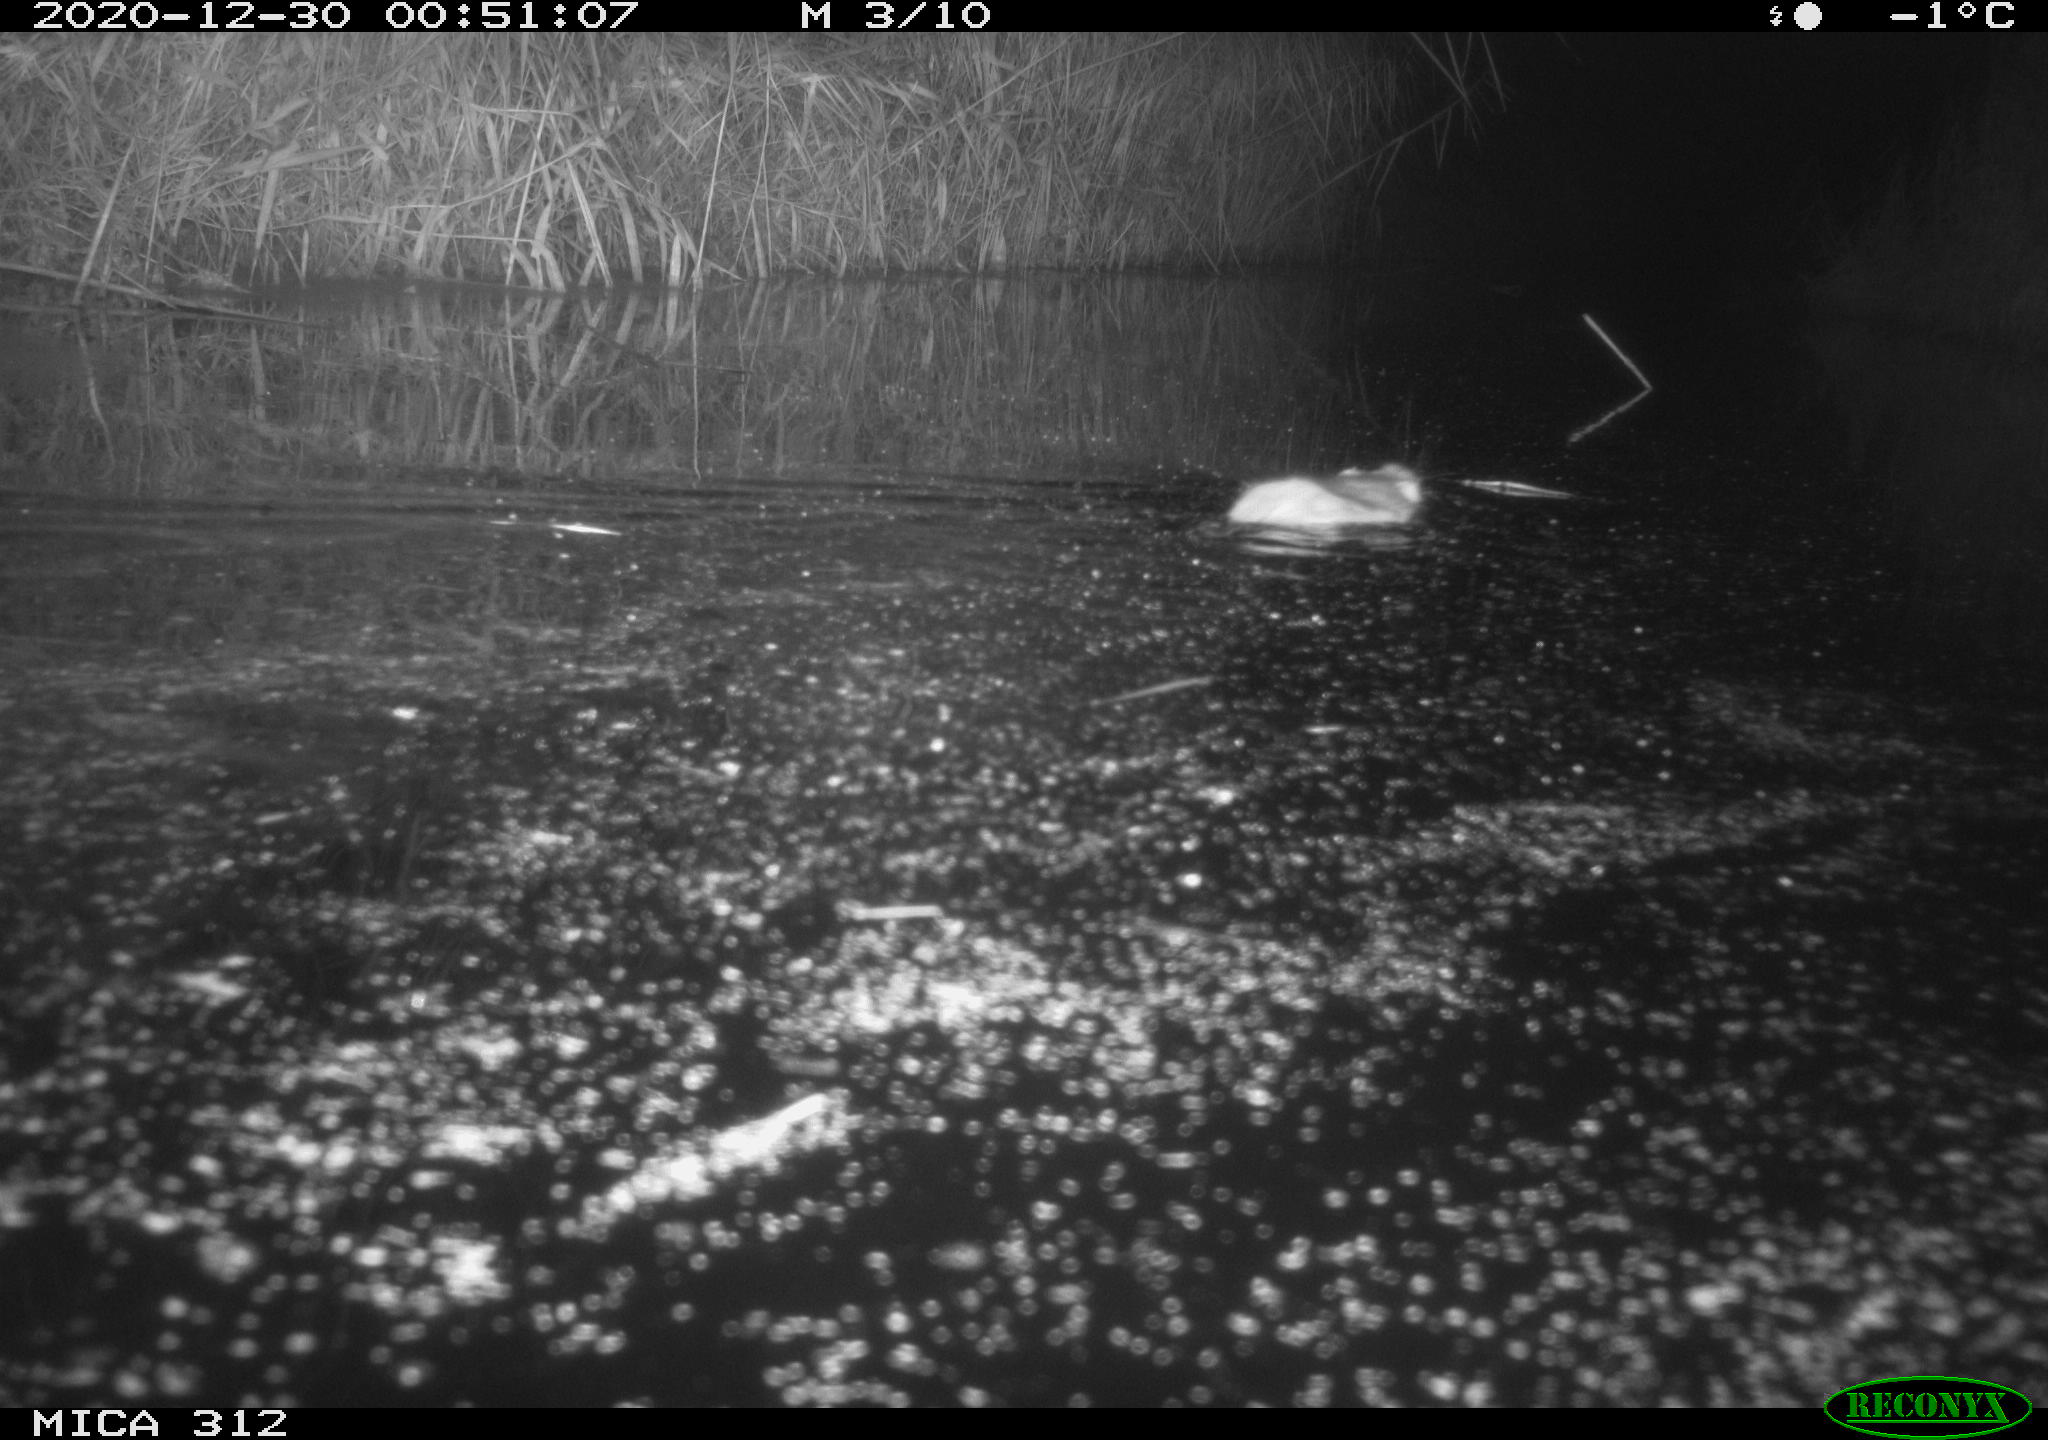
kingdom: Animalia
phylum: Chordata
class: Mammalia
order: Rodentia
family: Muridae
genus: Rattus
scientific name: Rattus norvegicus
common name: Brown rat
